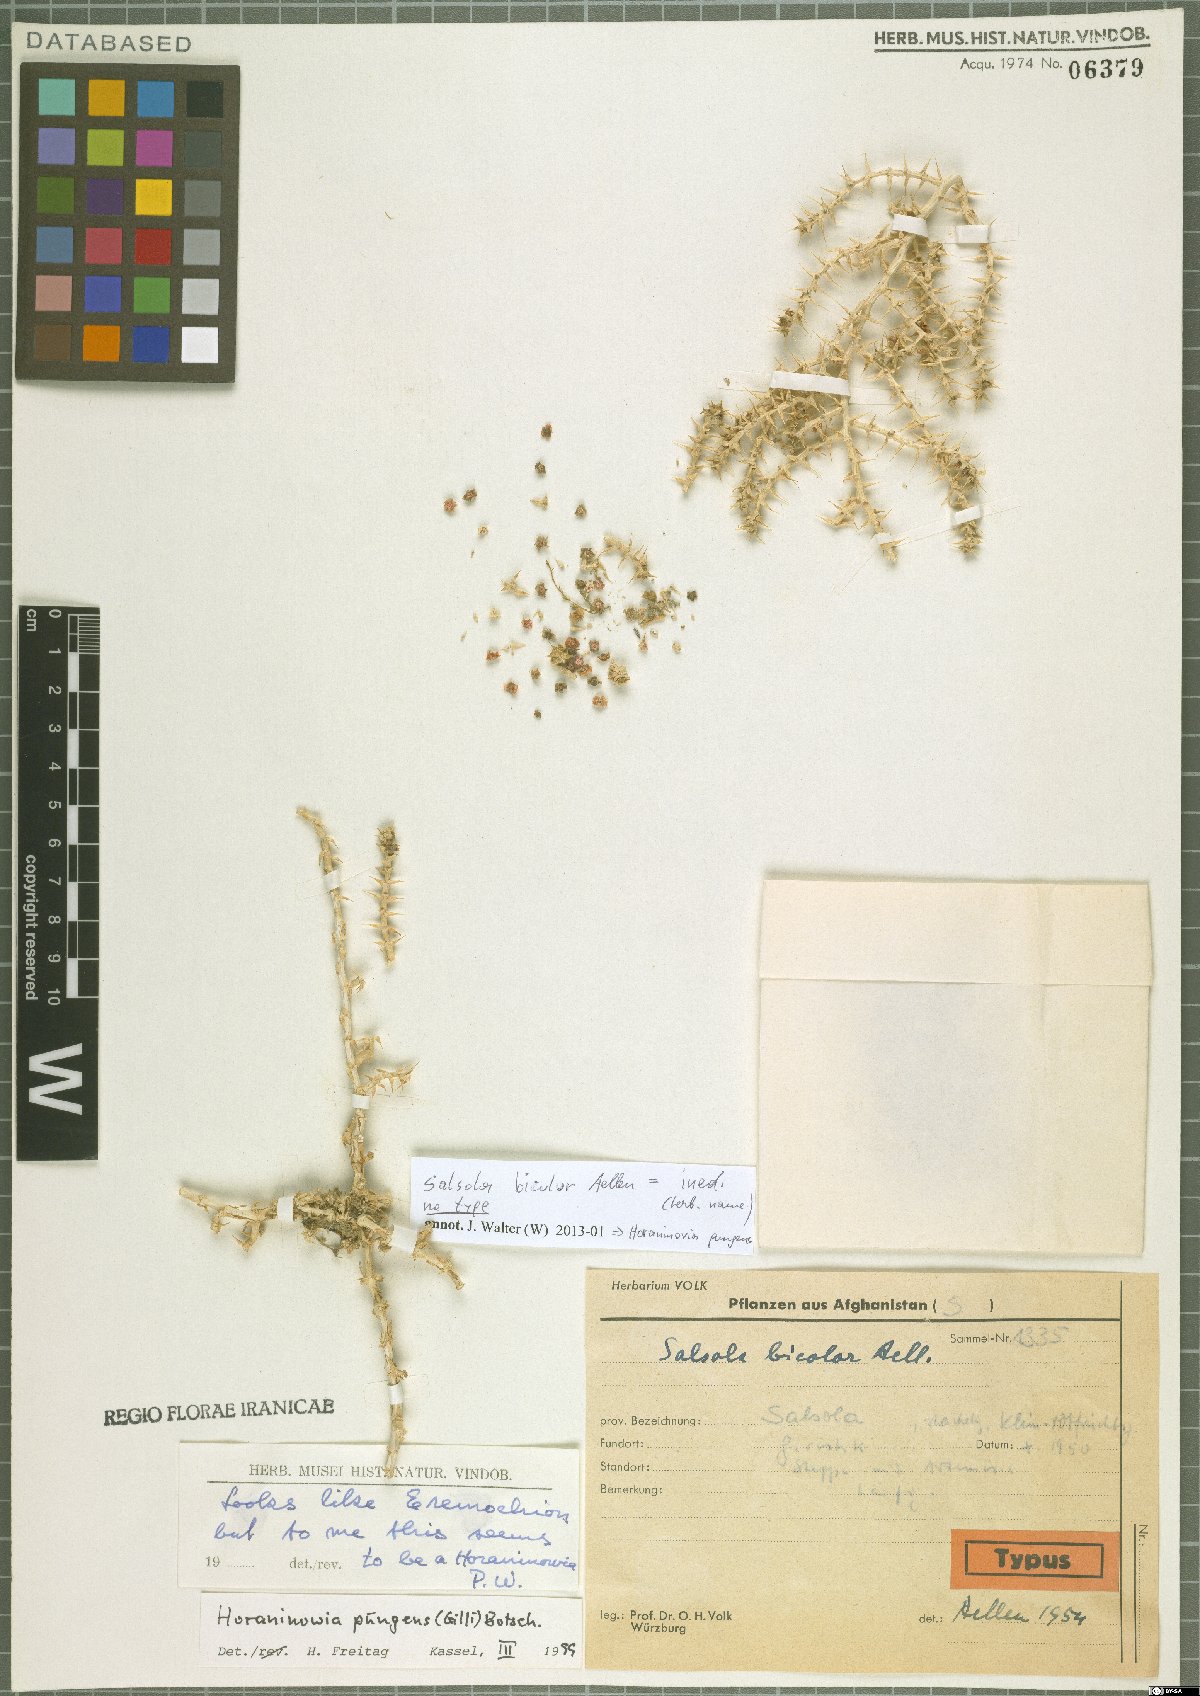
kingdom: Plantae
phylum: Tracheophyta
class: Magnoliopsida
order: Caryophyllales
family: Amaranthaceae
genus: Horaninovia
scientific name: Horaninovia pungens
